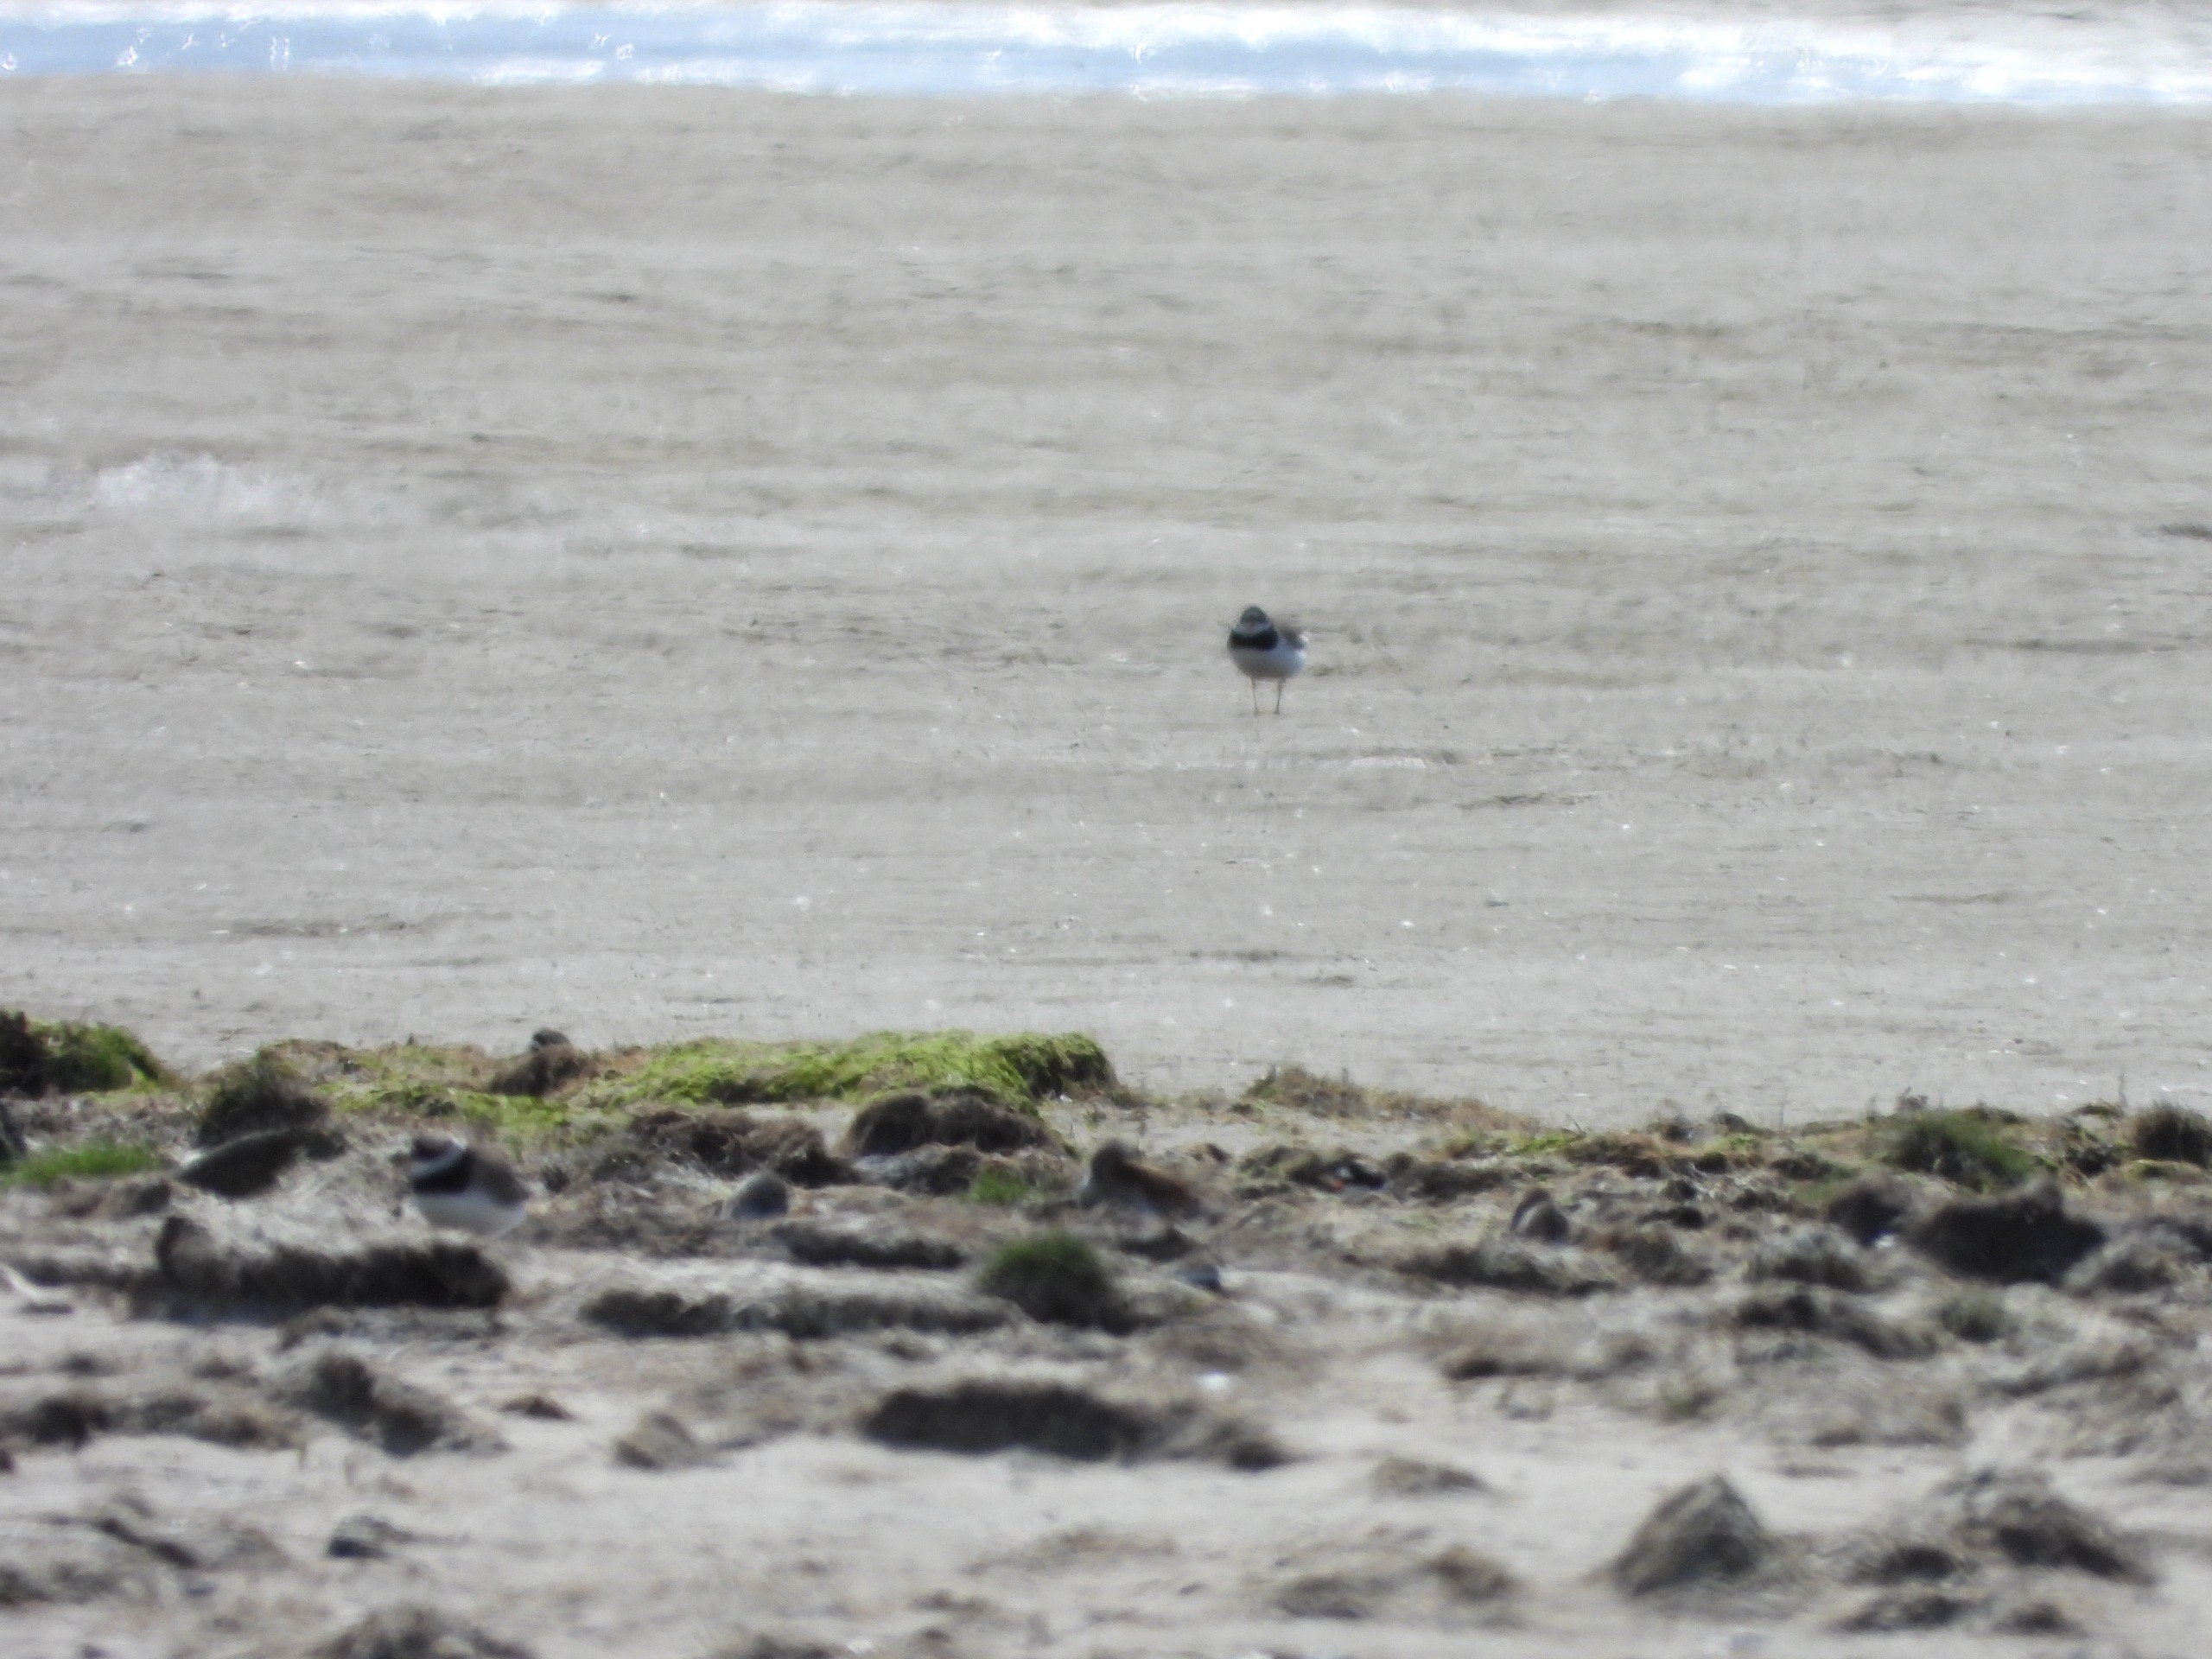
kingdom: Animalia
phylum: Chordata
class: Aves
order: Charadriiformes
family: Charadriidae
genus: Charadrius
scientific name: Charadrius hiaticula
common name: Stor præstekrave
